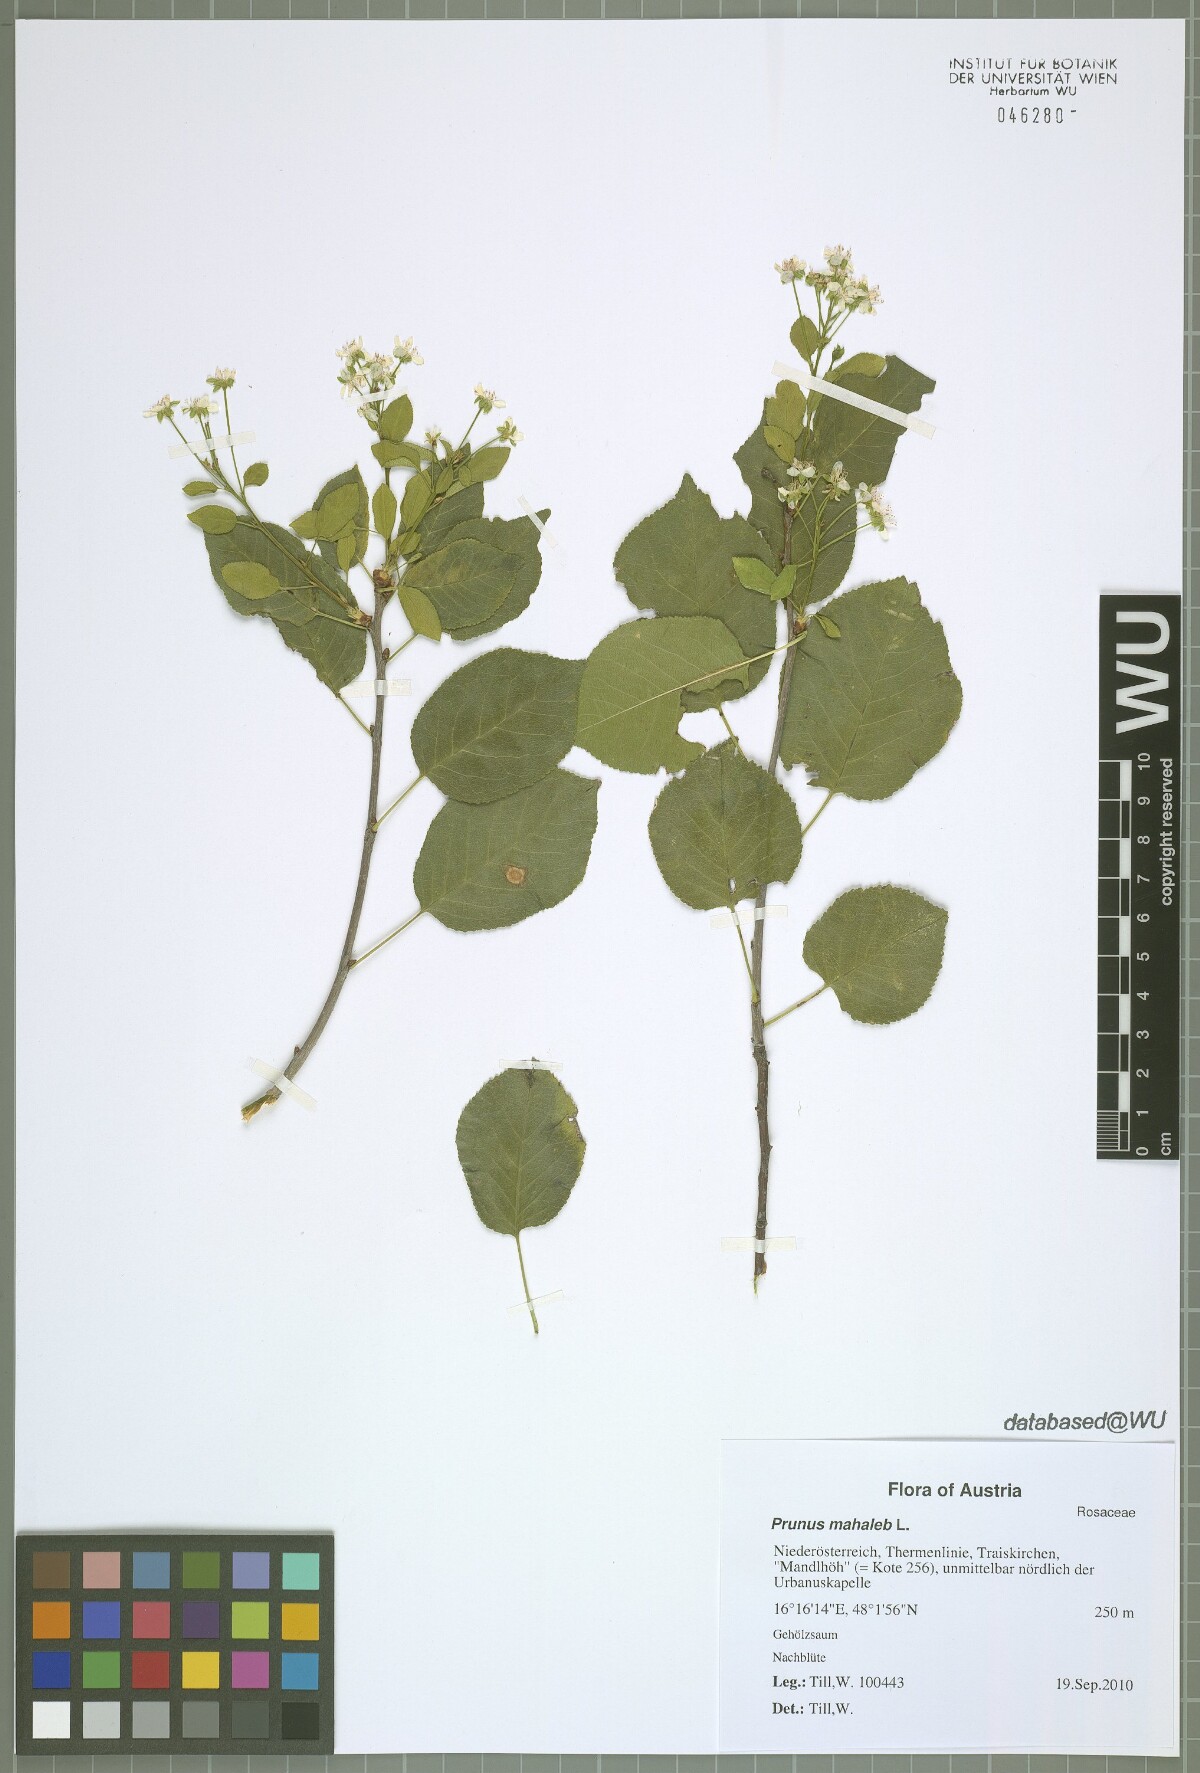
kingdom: Plantae
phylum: Tracheophyta
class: Magnoliopsida
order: Rosales
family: Rosaceae
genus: Prunus
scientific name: Prunus mahaleb
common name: Mahaleb cherry
